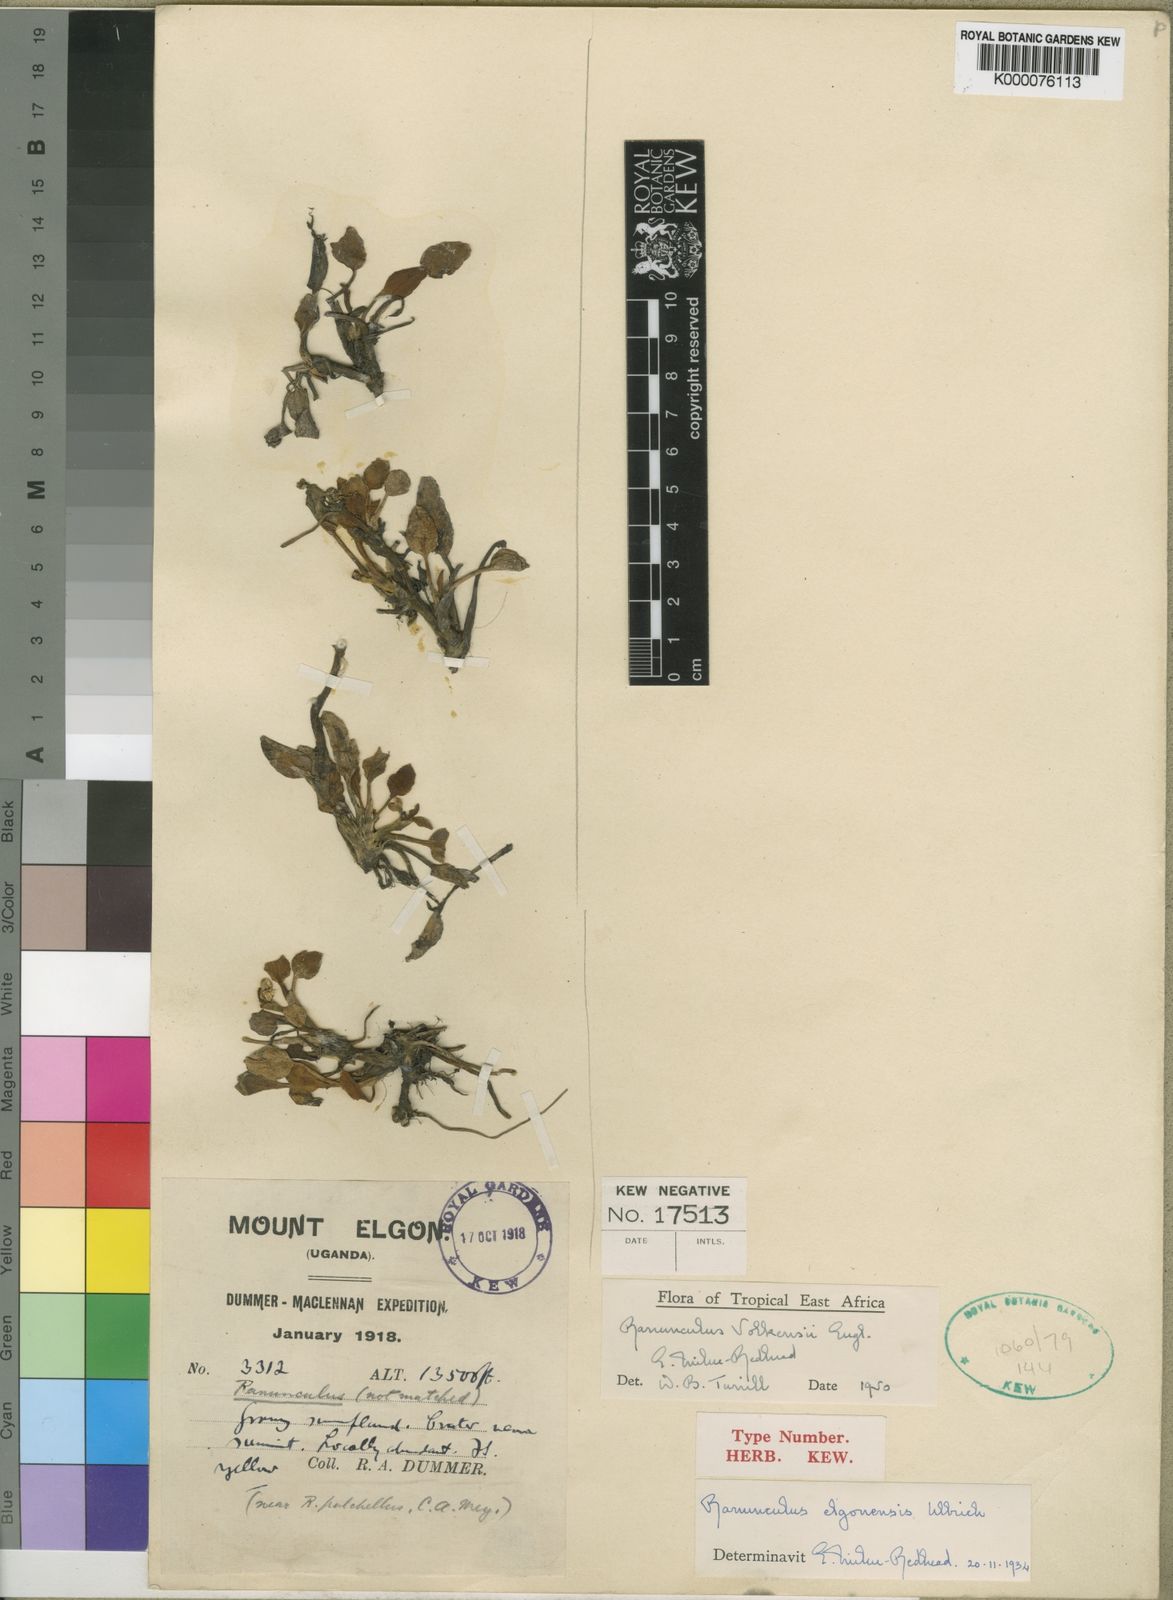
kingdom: Plantae
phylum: Tracheophyta
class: Magnoliopsida
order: Ranunculales
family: Ranunculaceae
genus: Ranunculus
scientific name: Ranunculus volkensii
